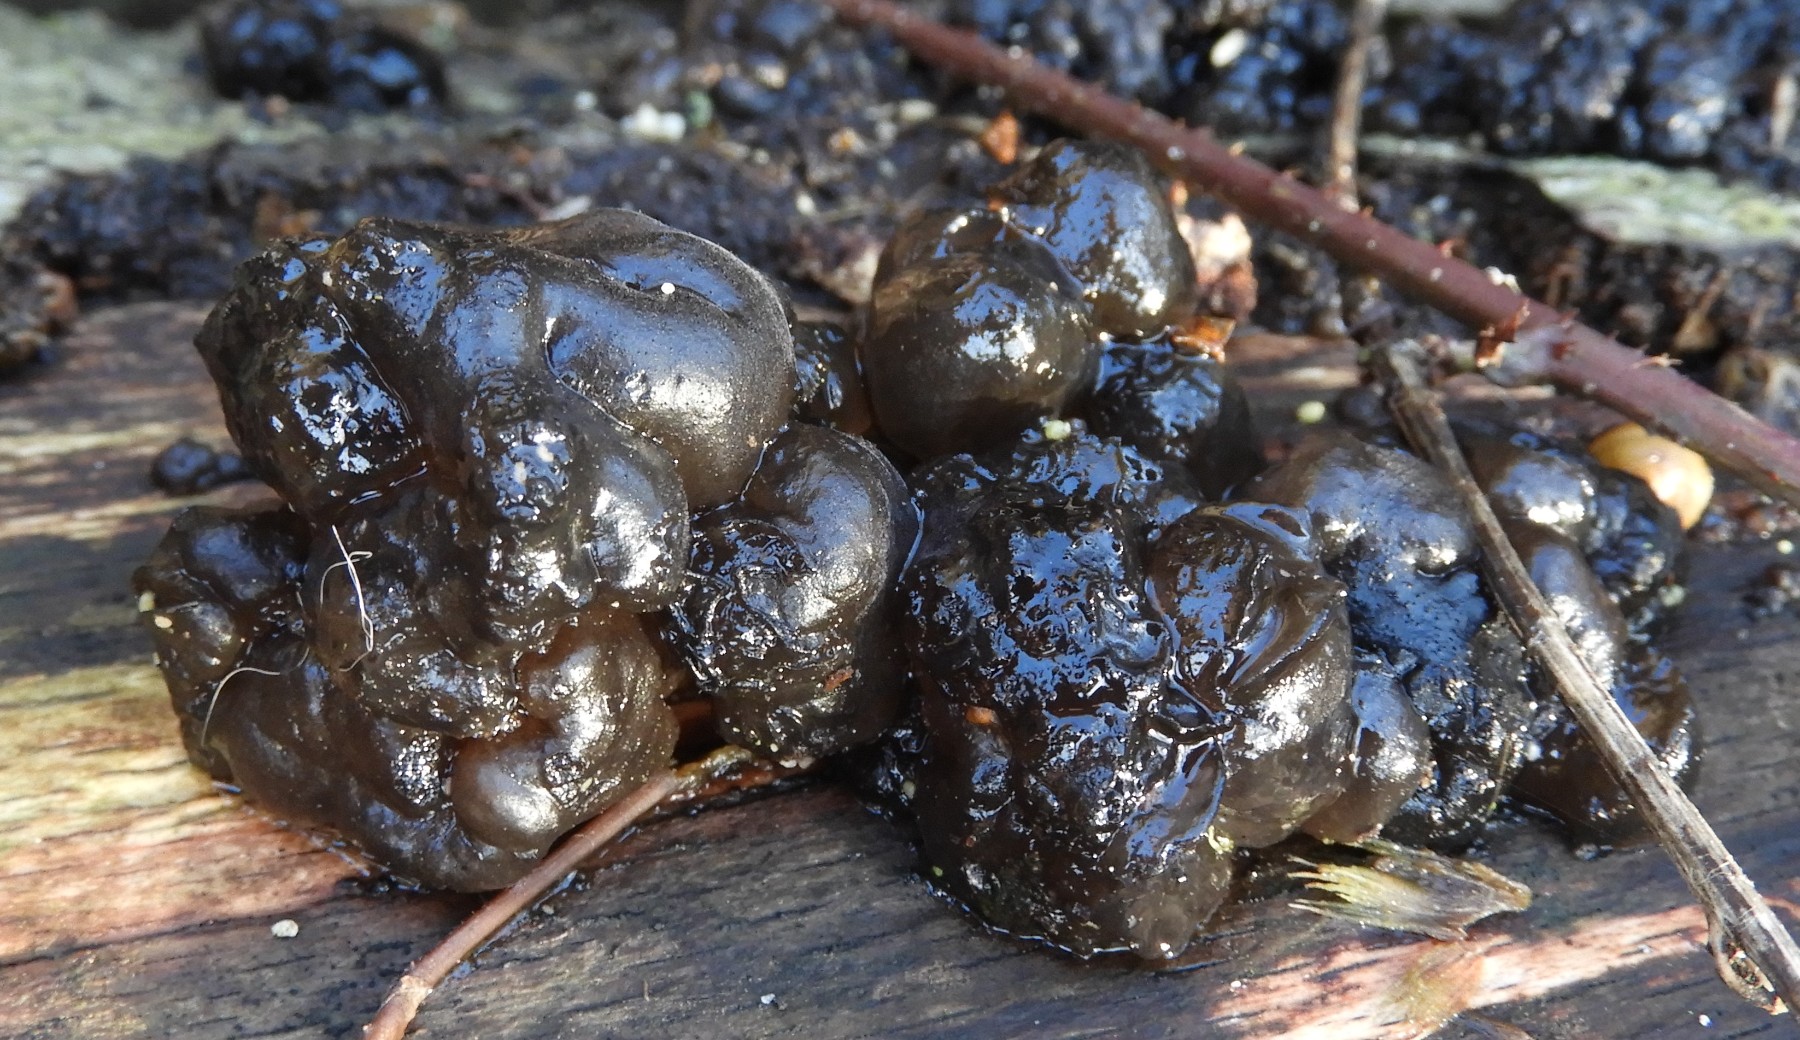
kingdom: Fungi
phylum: Basidiomycota
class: Agaricomycetes
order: Auriculariales
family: Auriculariaceae
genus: Exidia
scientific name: Exidia nigricans
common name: almindelig bævretop
